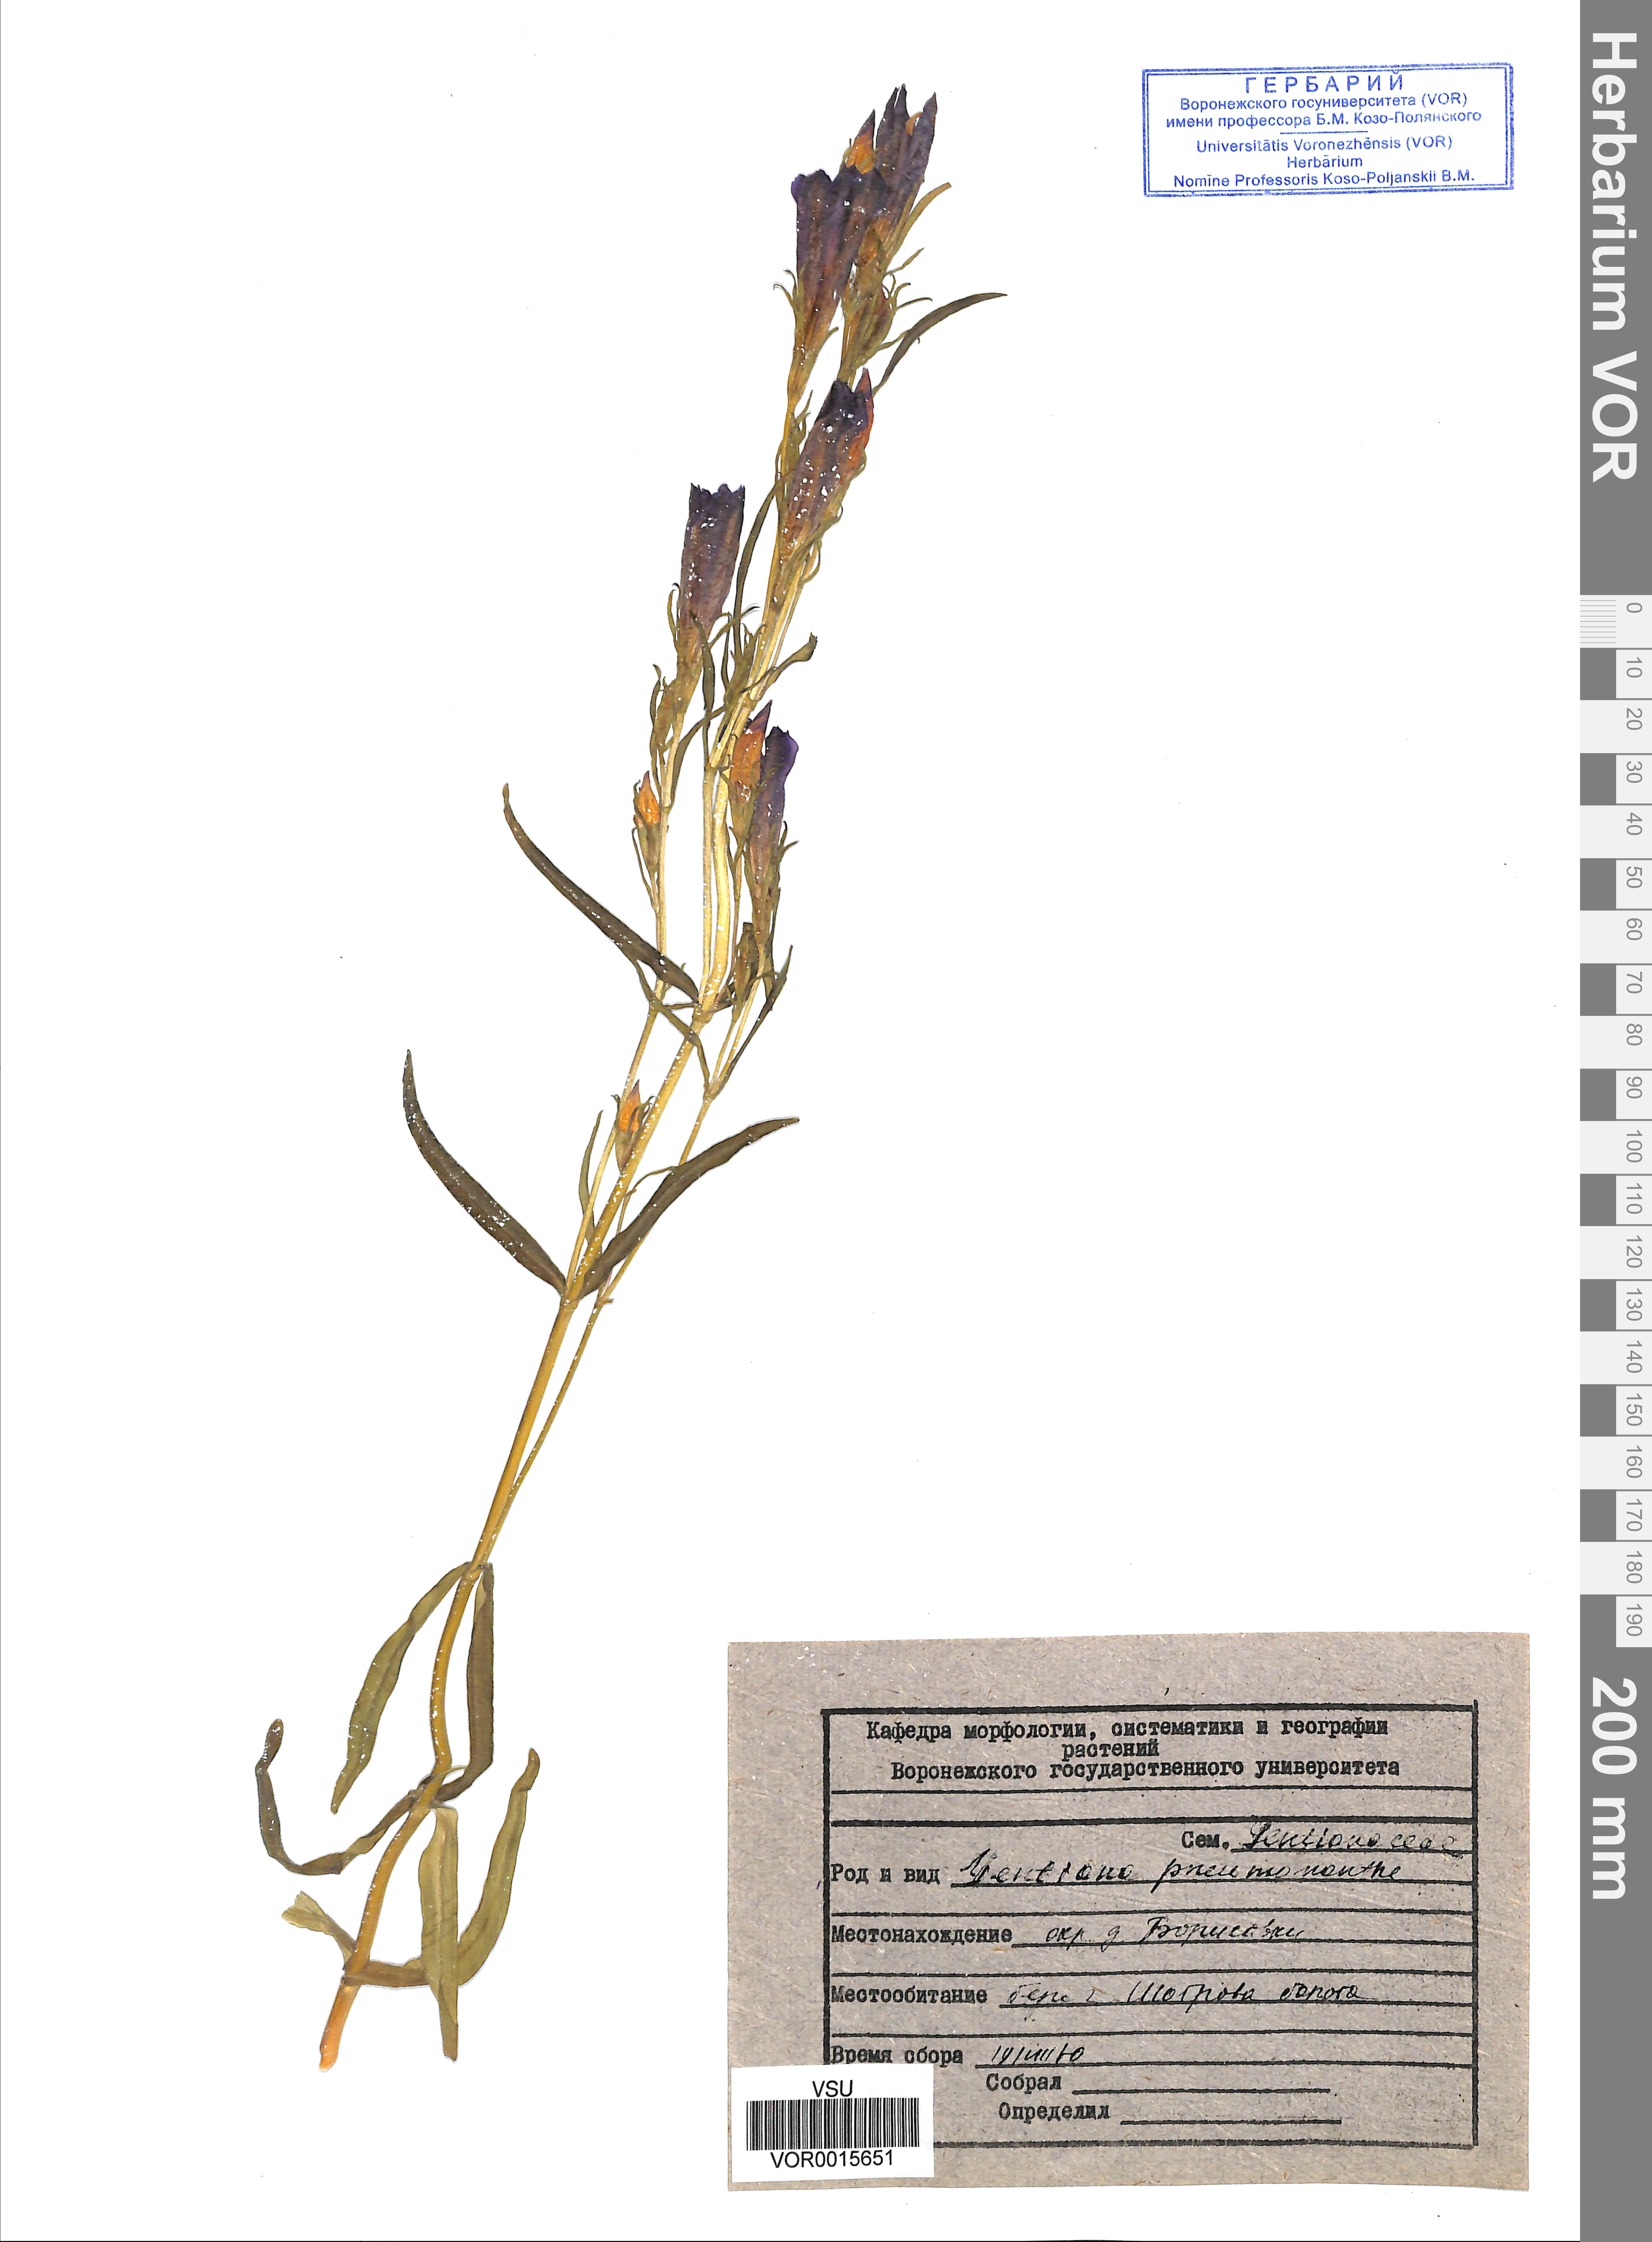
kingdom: Plantae
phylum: Tracheophyta
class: Magnoliopsida
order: Gentianales
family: Gentianaceae
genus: Gentiana
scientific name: Gentiana pneumonanthe
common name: Marsh gentian
